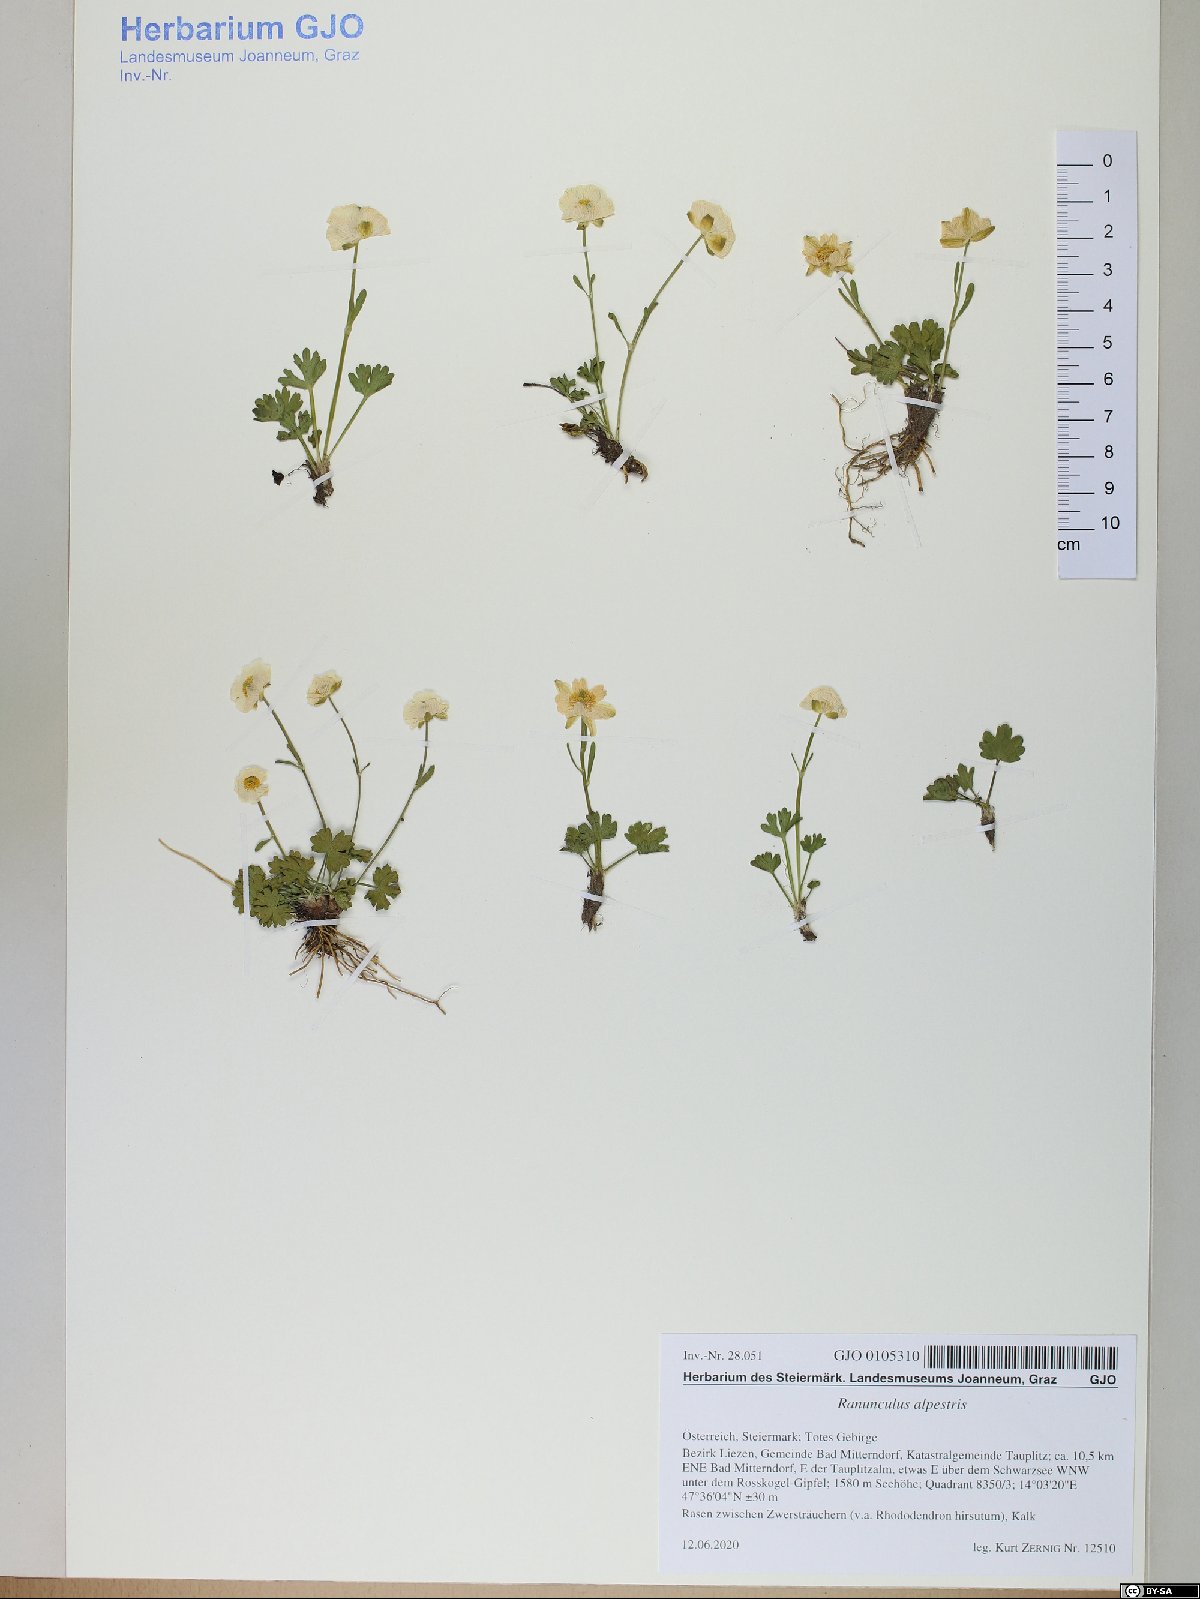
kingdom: Plantae
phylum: Tracheophyta
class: Magnoliopsida
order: Ranunculales
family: Ranunculaceae
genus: Ranunculus
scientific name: Ranunculus alpestris
